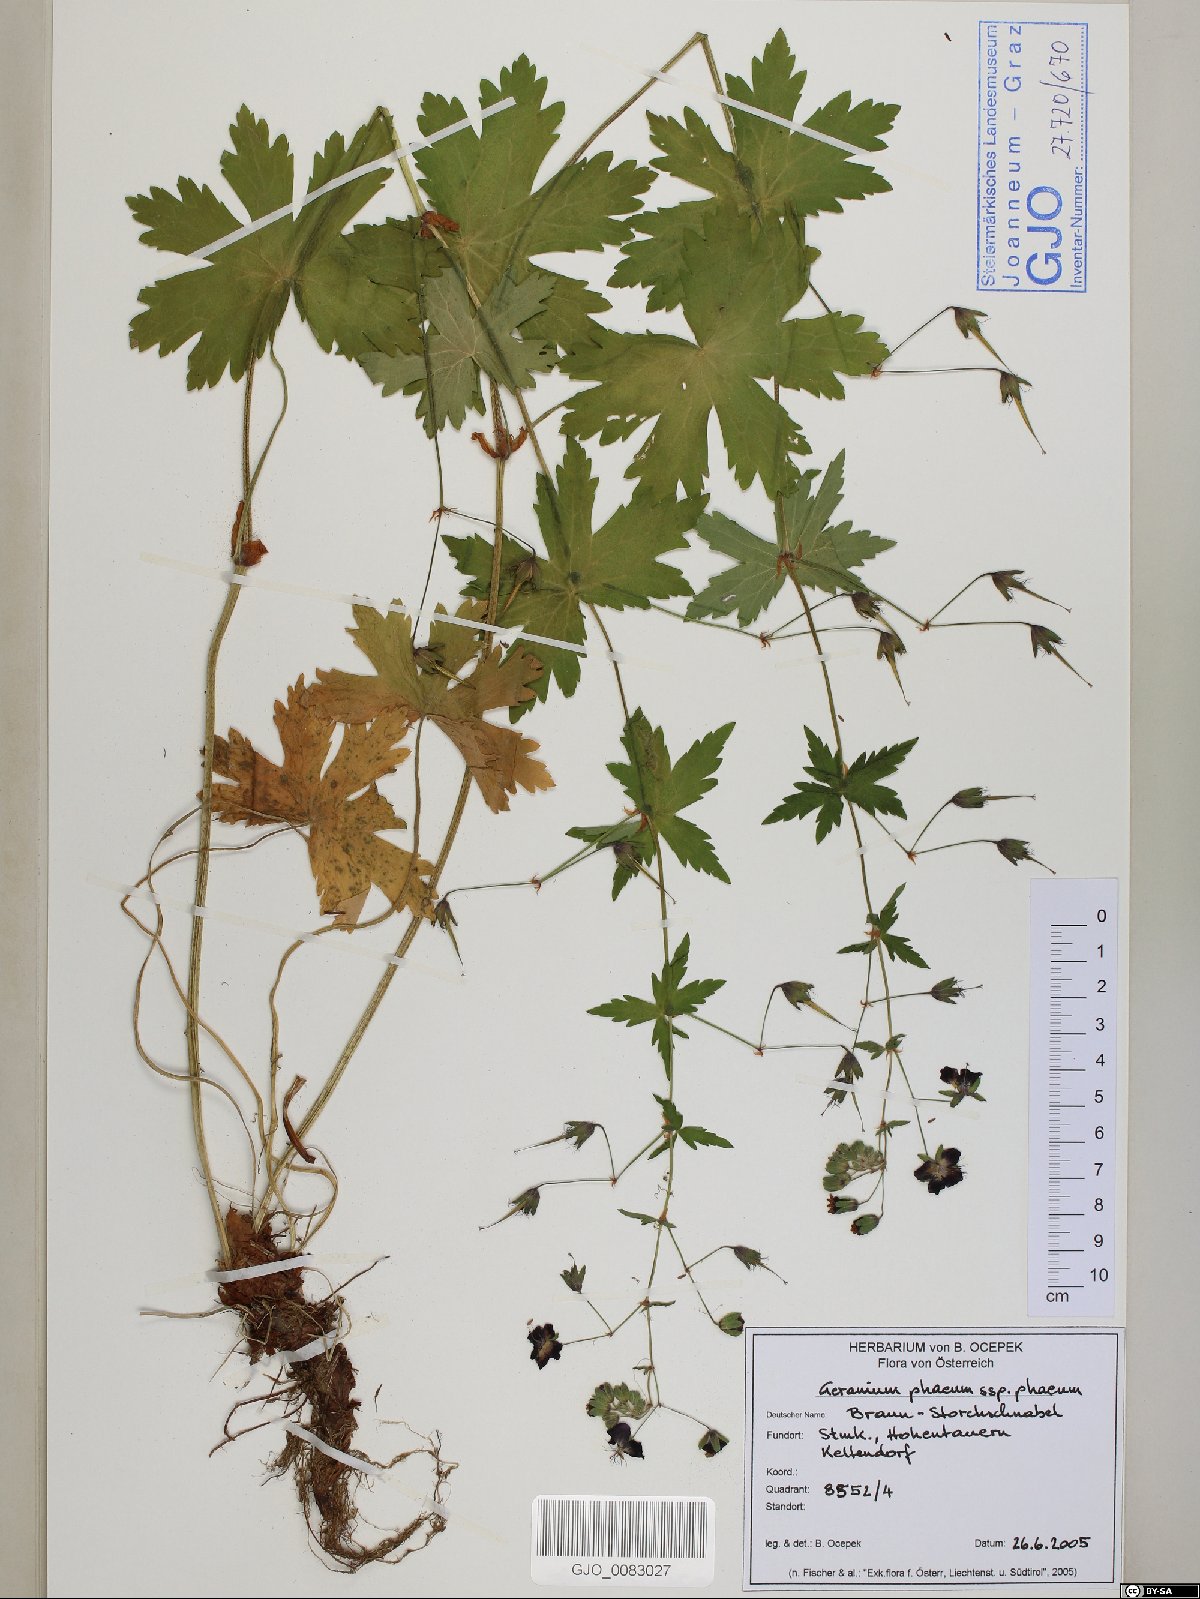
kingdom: Plantae
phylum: Tracheophyta
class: Magnoliopsida
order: Geraniales
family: Geraniaceae
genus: Geranium
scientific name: Geranium phaeum
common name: Dusky crane's-bill
